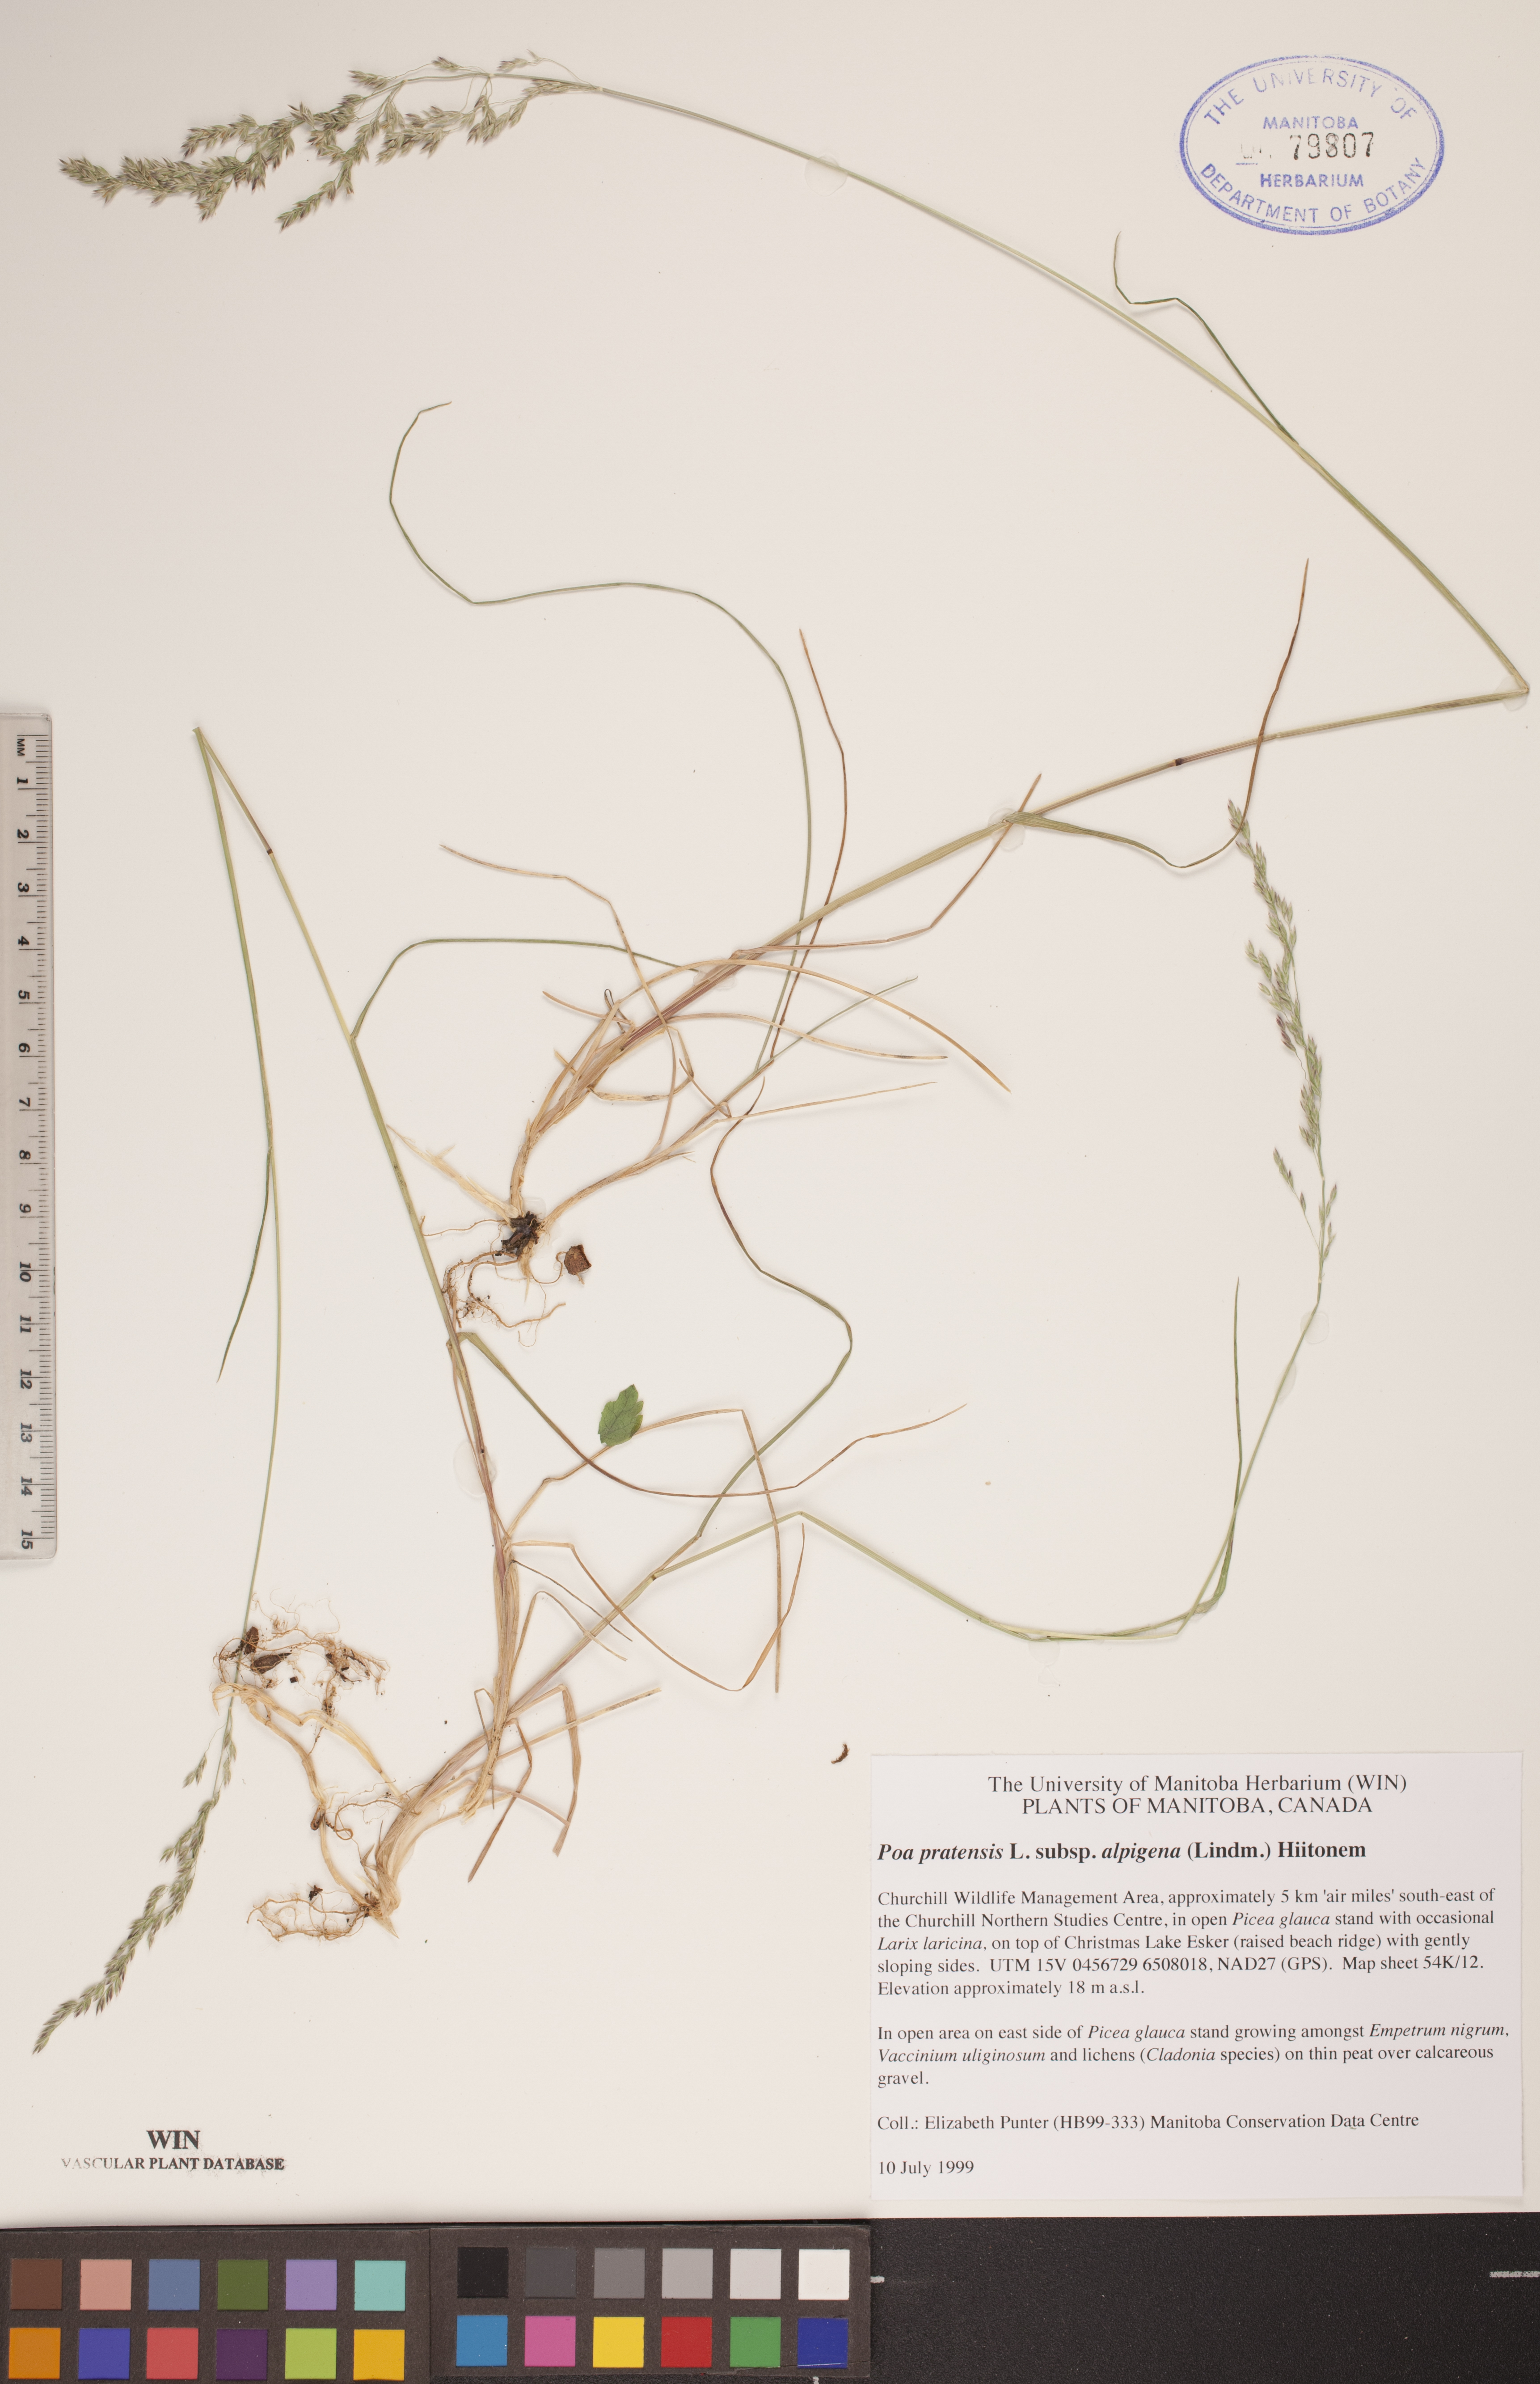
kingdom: Plantae
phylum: Tracheophyta
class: Liliopsida
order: Poales
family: Poaceae
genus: Poa
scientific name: Poa alpigena
